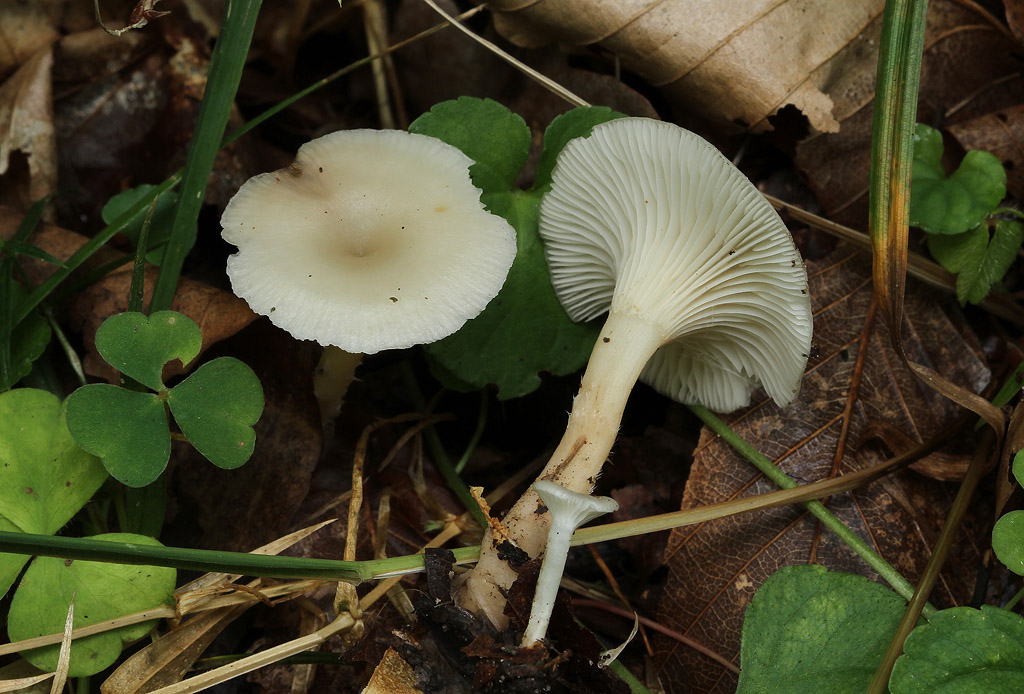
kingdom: Fungi
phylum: Basidiomycota
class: Agaricomycetes
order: Agaricales
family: Tricholomataceae
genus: Clitocybe
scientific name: Clitocybe fragrans
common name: vellugtende tragthat
